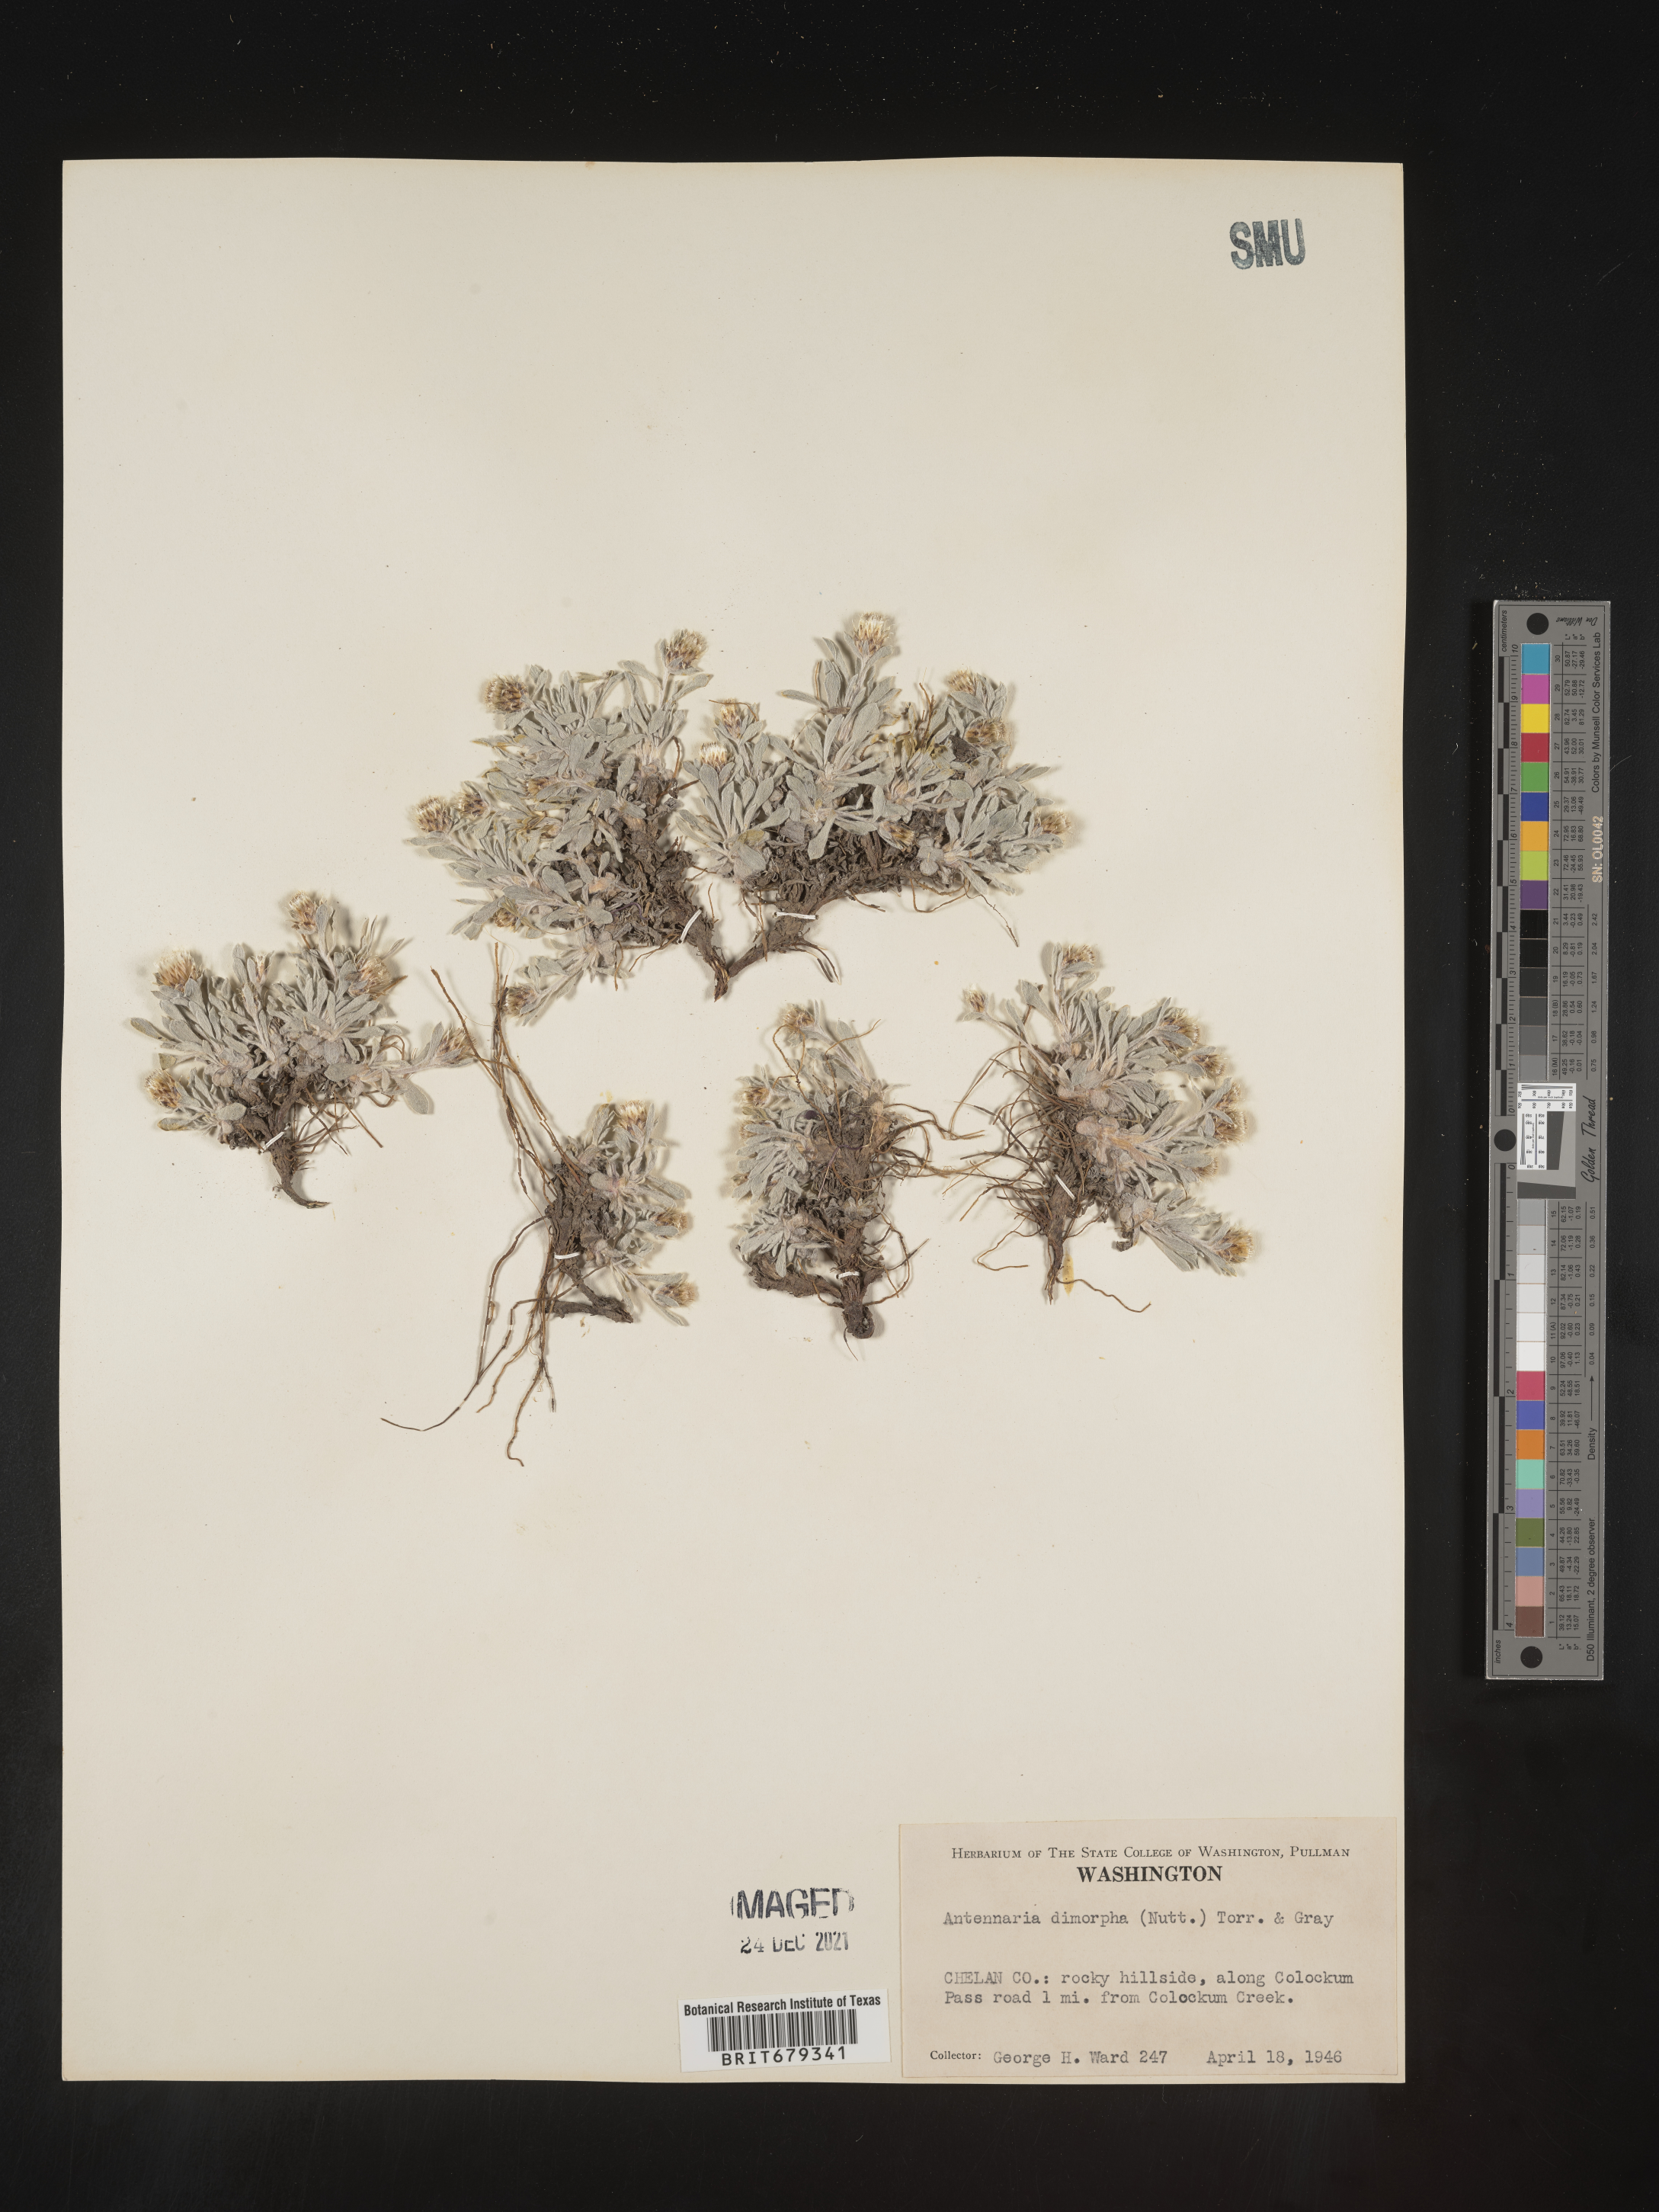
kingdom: Plantae
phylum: Tracheophyta
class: Magnoliopsida
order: Asterales
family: Asteraceae
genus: Antennaria
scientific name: Antennaria dimorpha
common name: Cushion pussytoes
